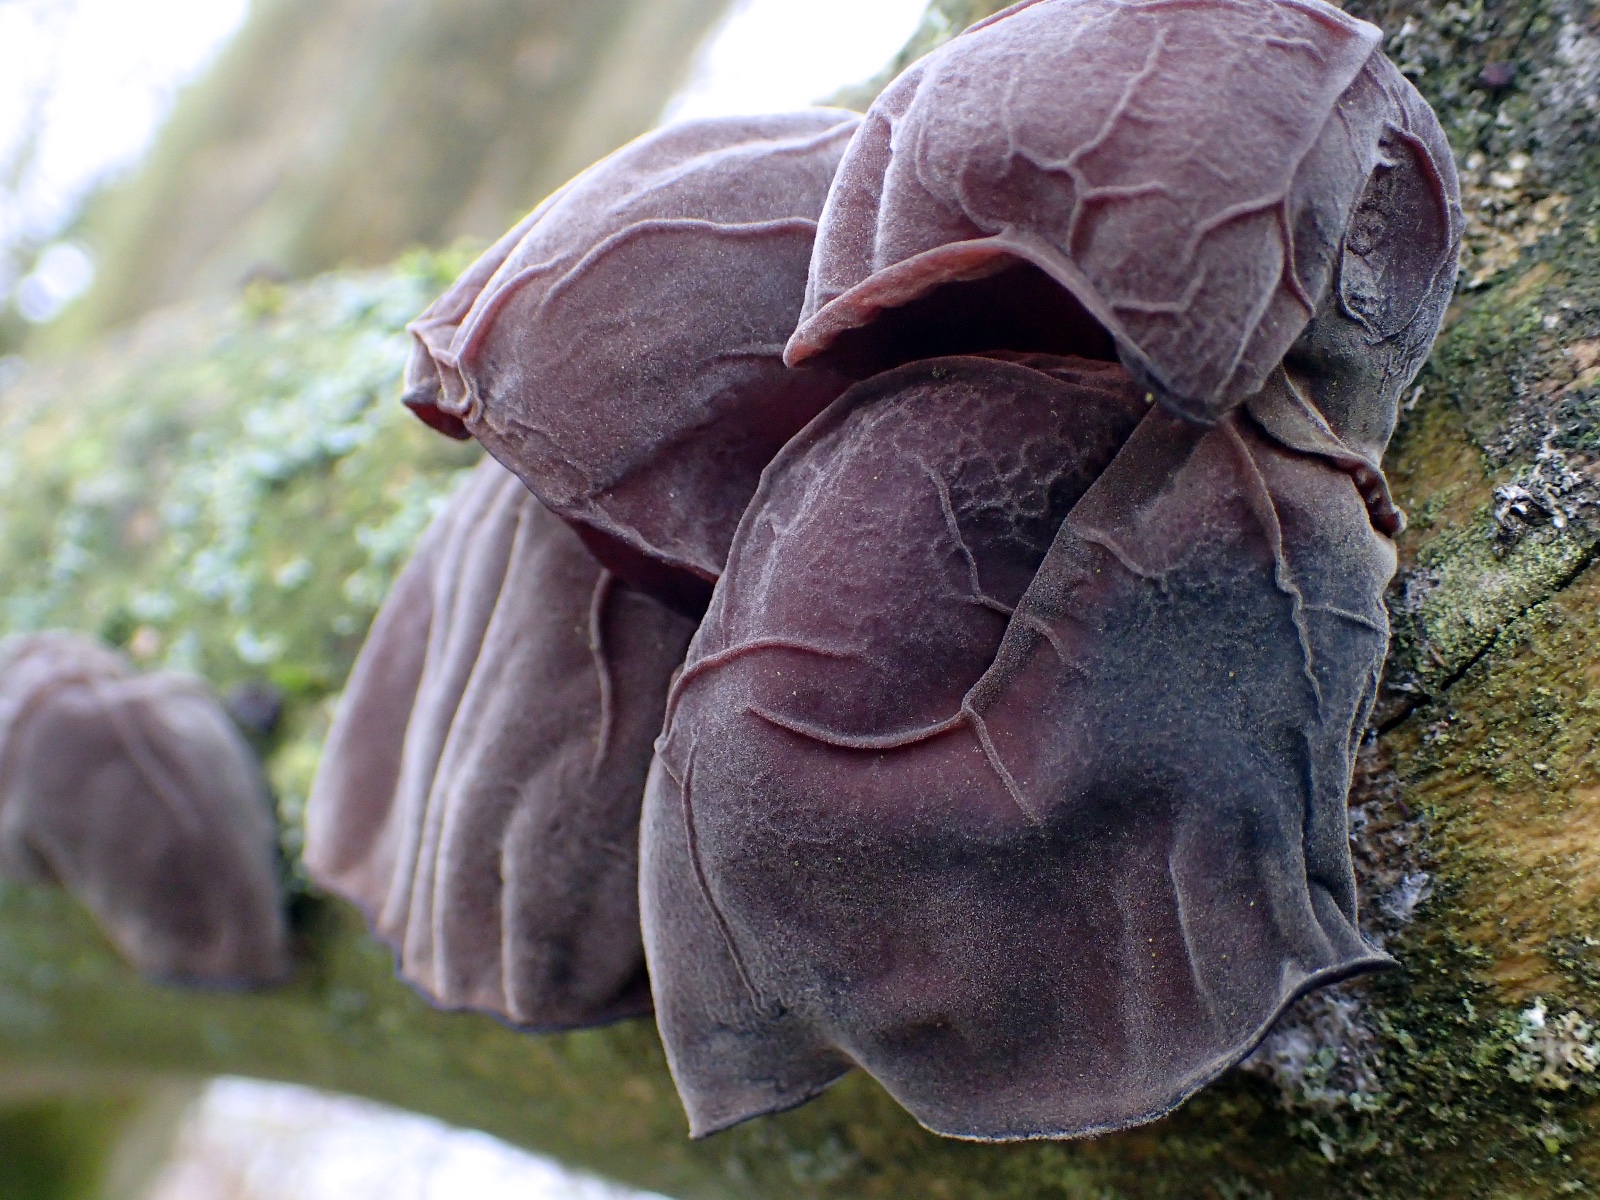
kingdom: Fungi
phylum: Basidiomycota
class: Agaricomycetes
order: Auriculariales
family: Auriculariaceae
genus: Auricularia
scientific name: Auricularia auricula-judae
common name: almindelig judasøre
